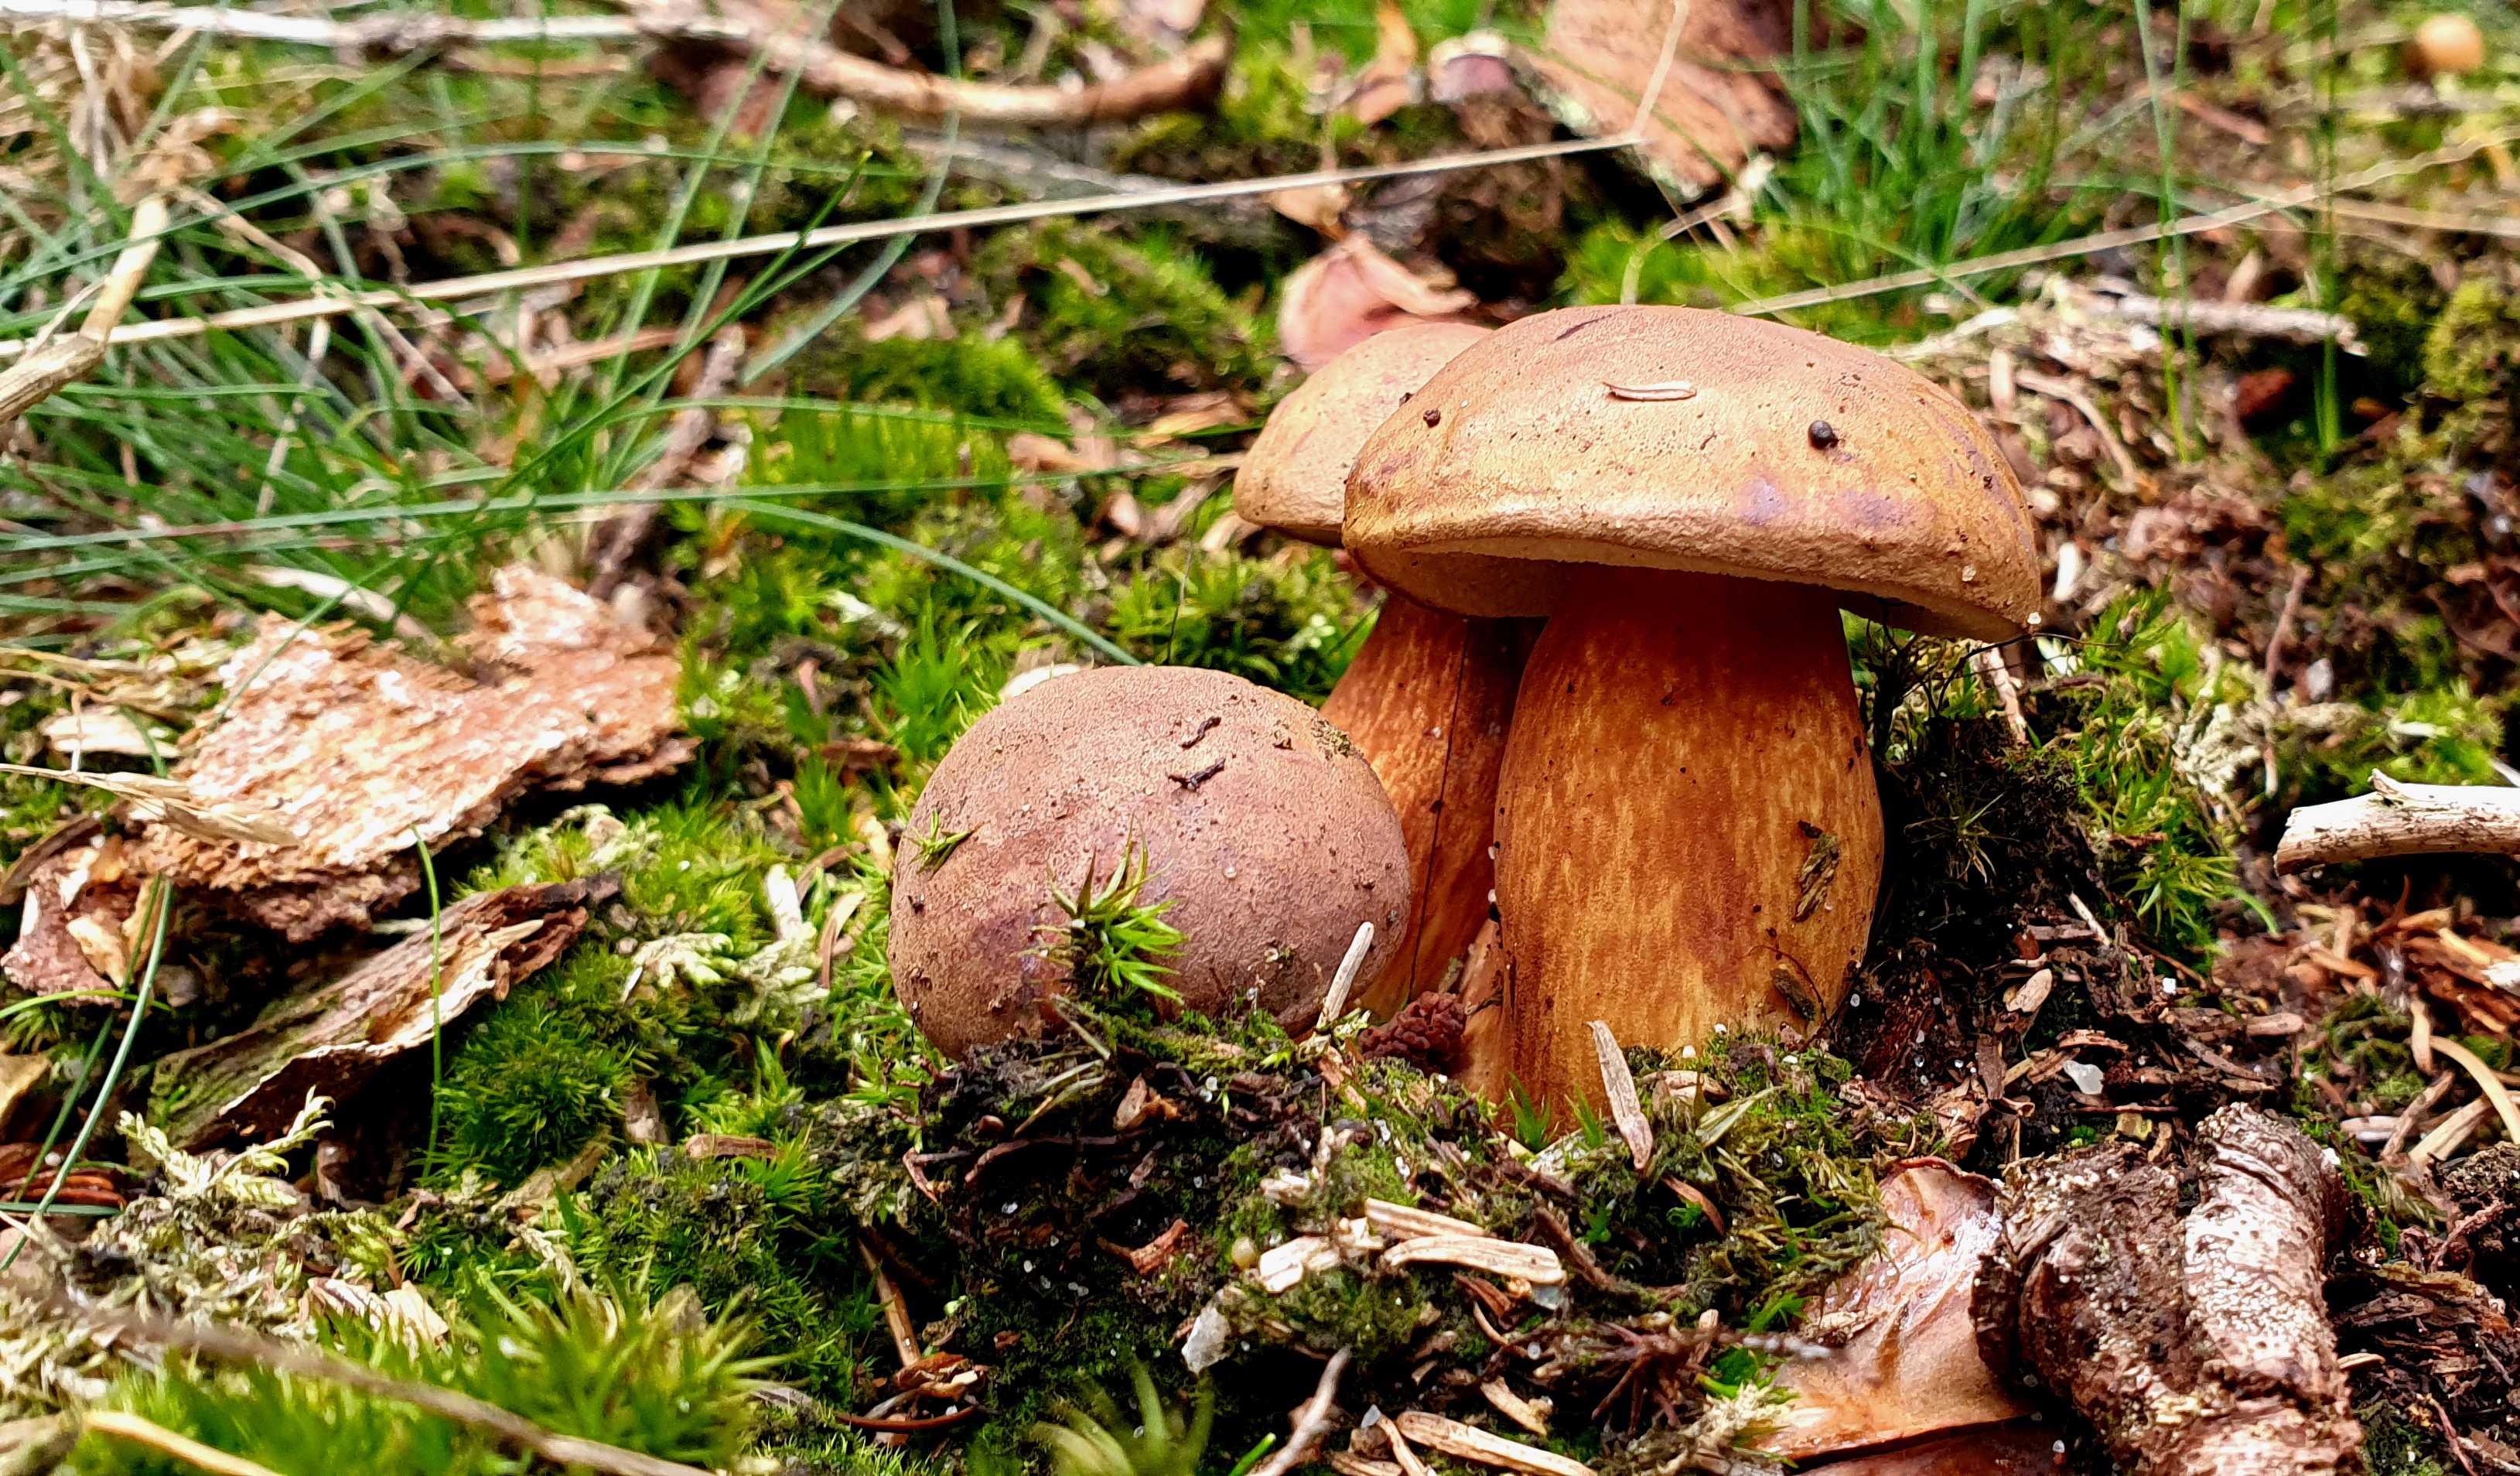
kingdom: Fungi
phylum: Basidiomycota
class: Agaricomycetes
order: Boletales
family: Boletaceae
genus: Imleria
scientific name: Imleria badia
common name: brunstokket rørhat
